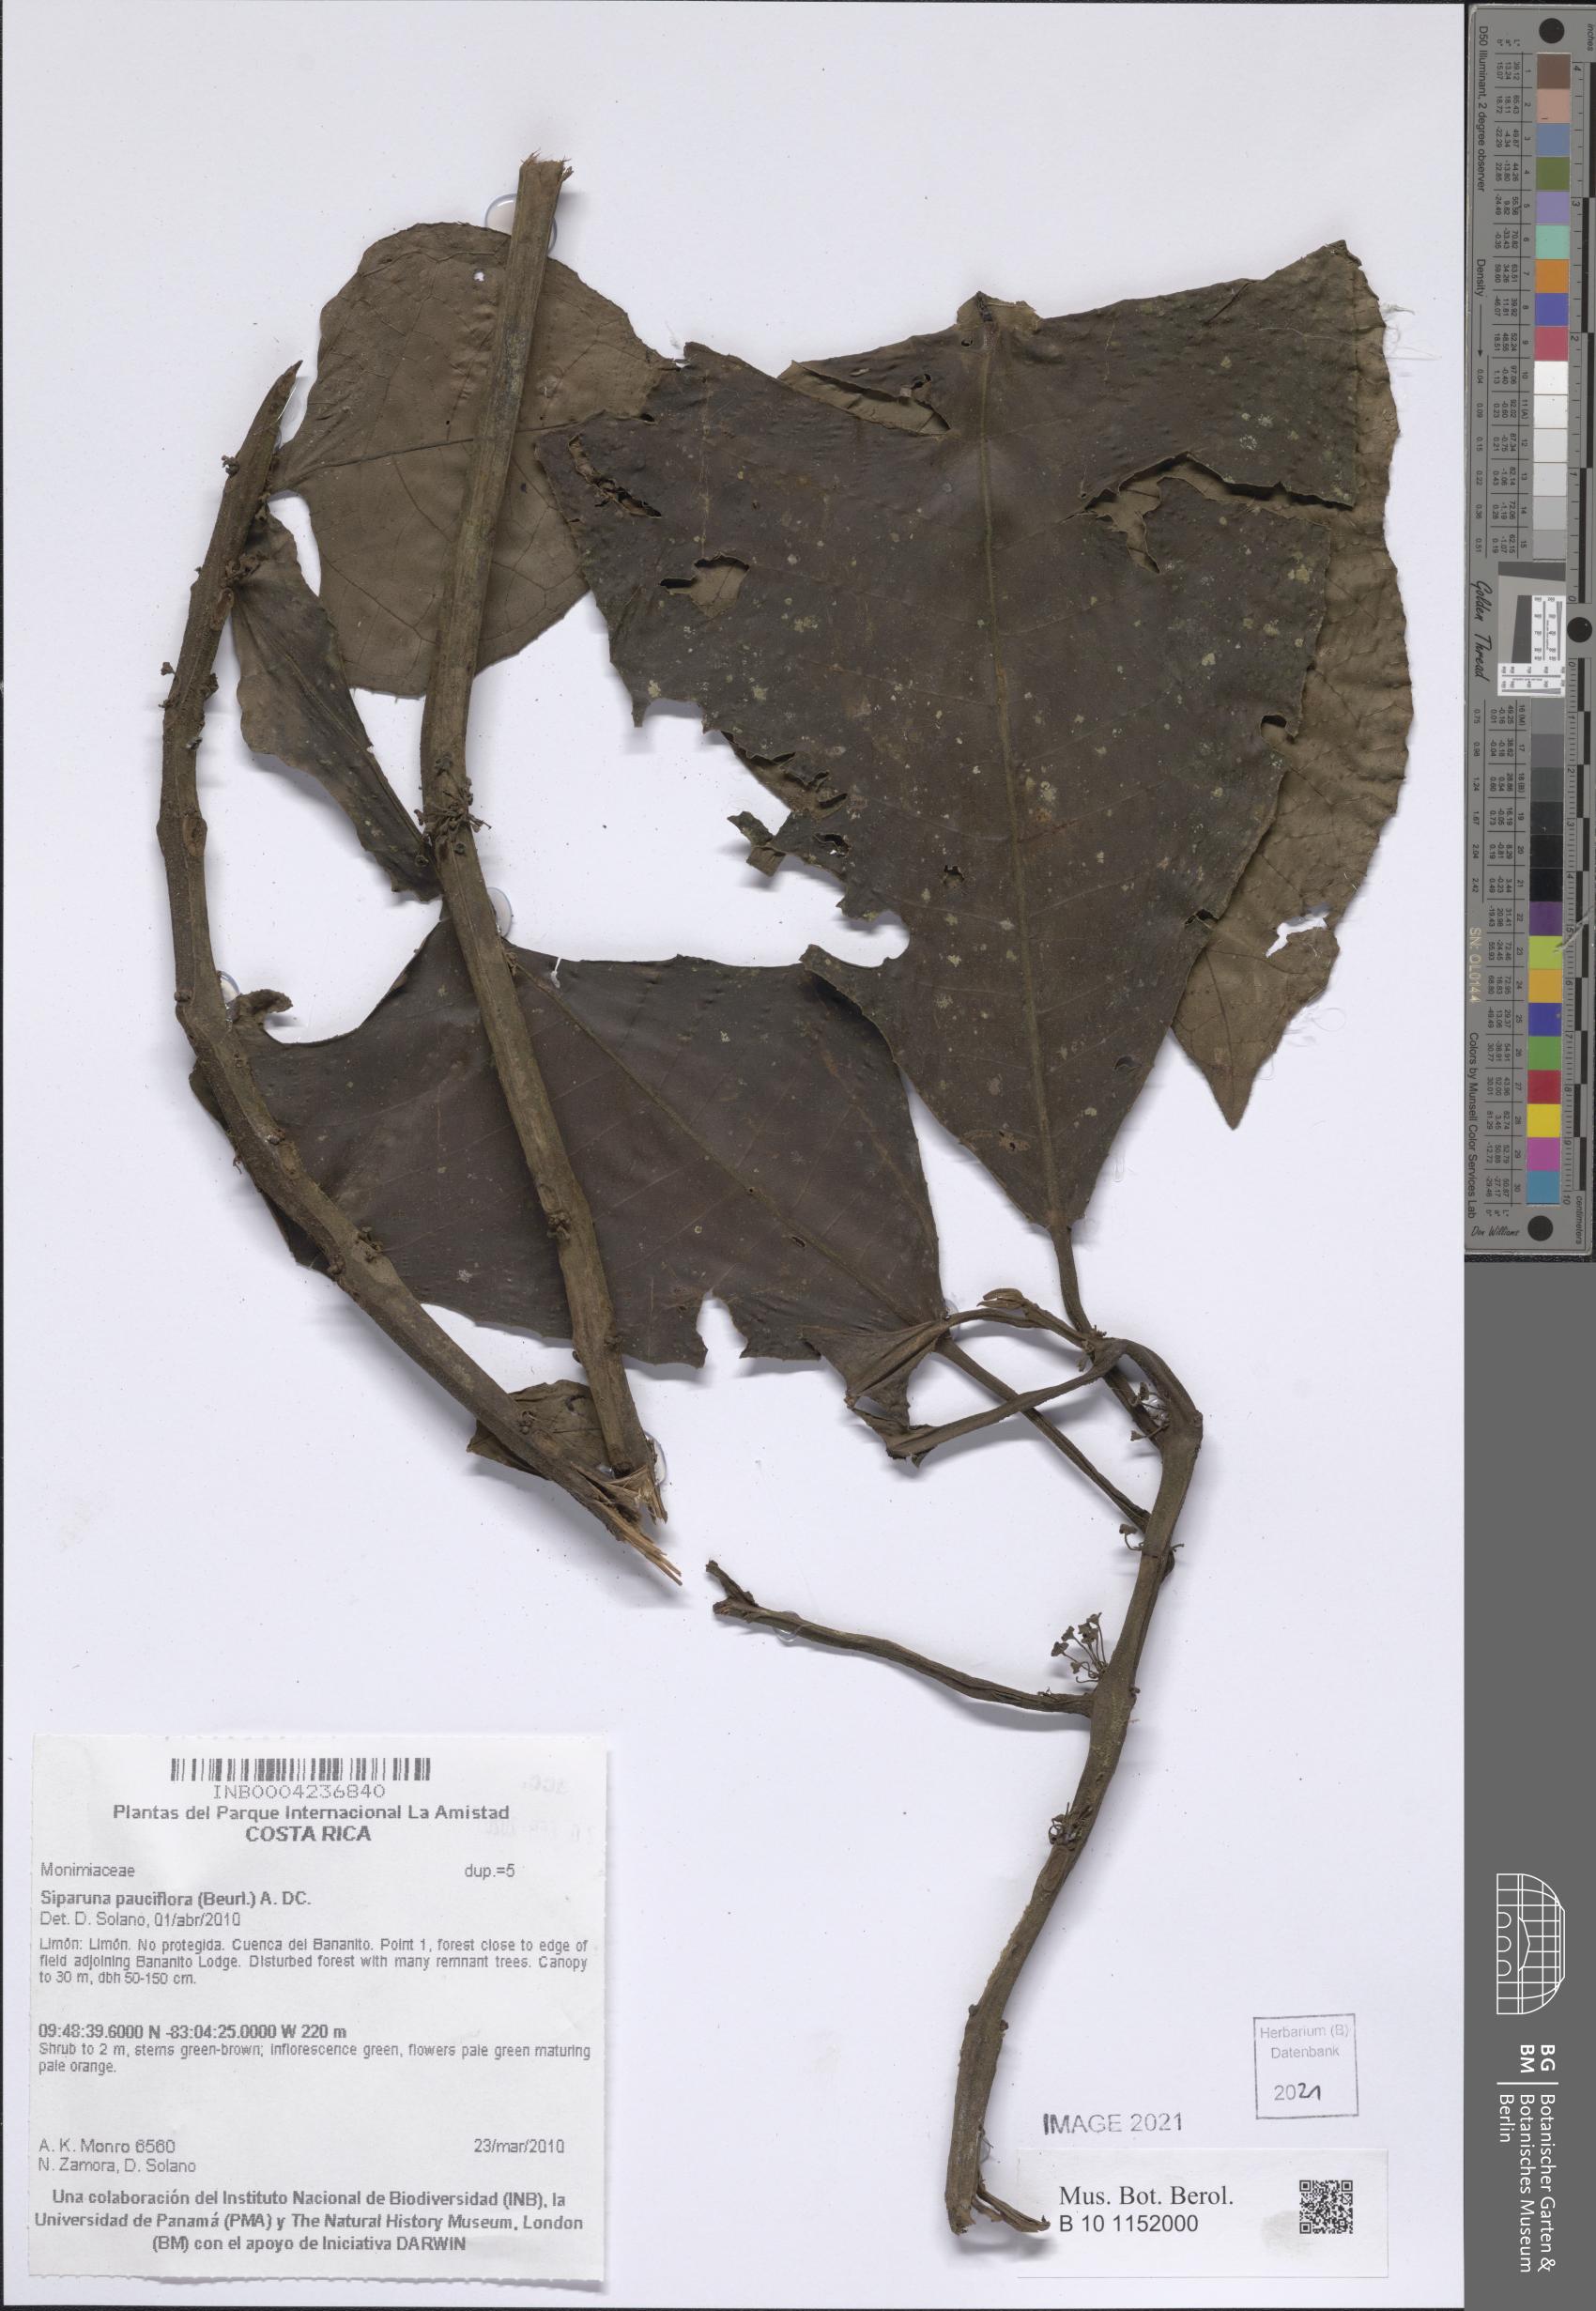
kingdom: Plantae
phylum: Tracheophyta
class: Magnoliopsida
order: Laurales
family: Siparunaceae
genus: Siparuna
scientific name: Siparuna pauciflora
